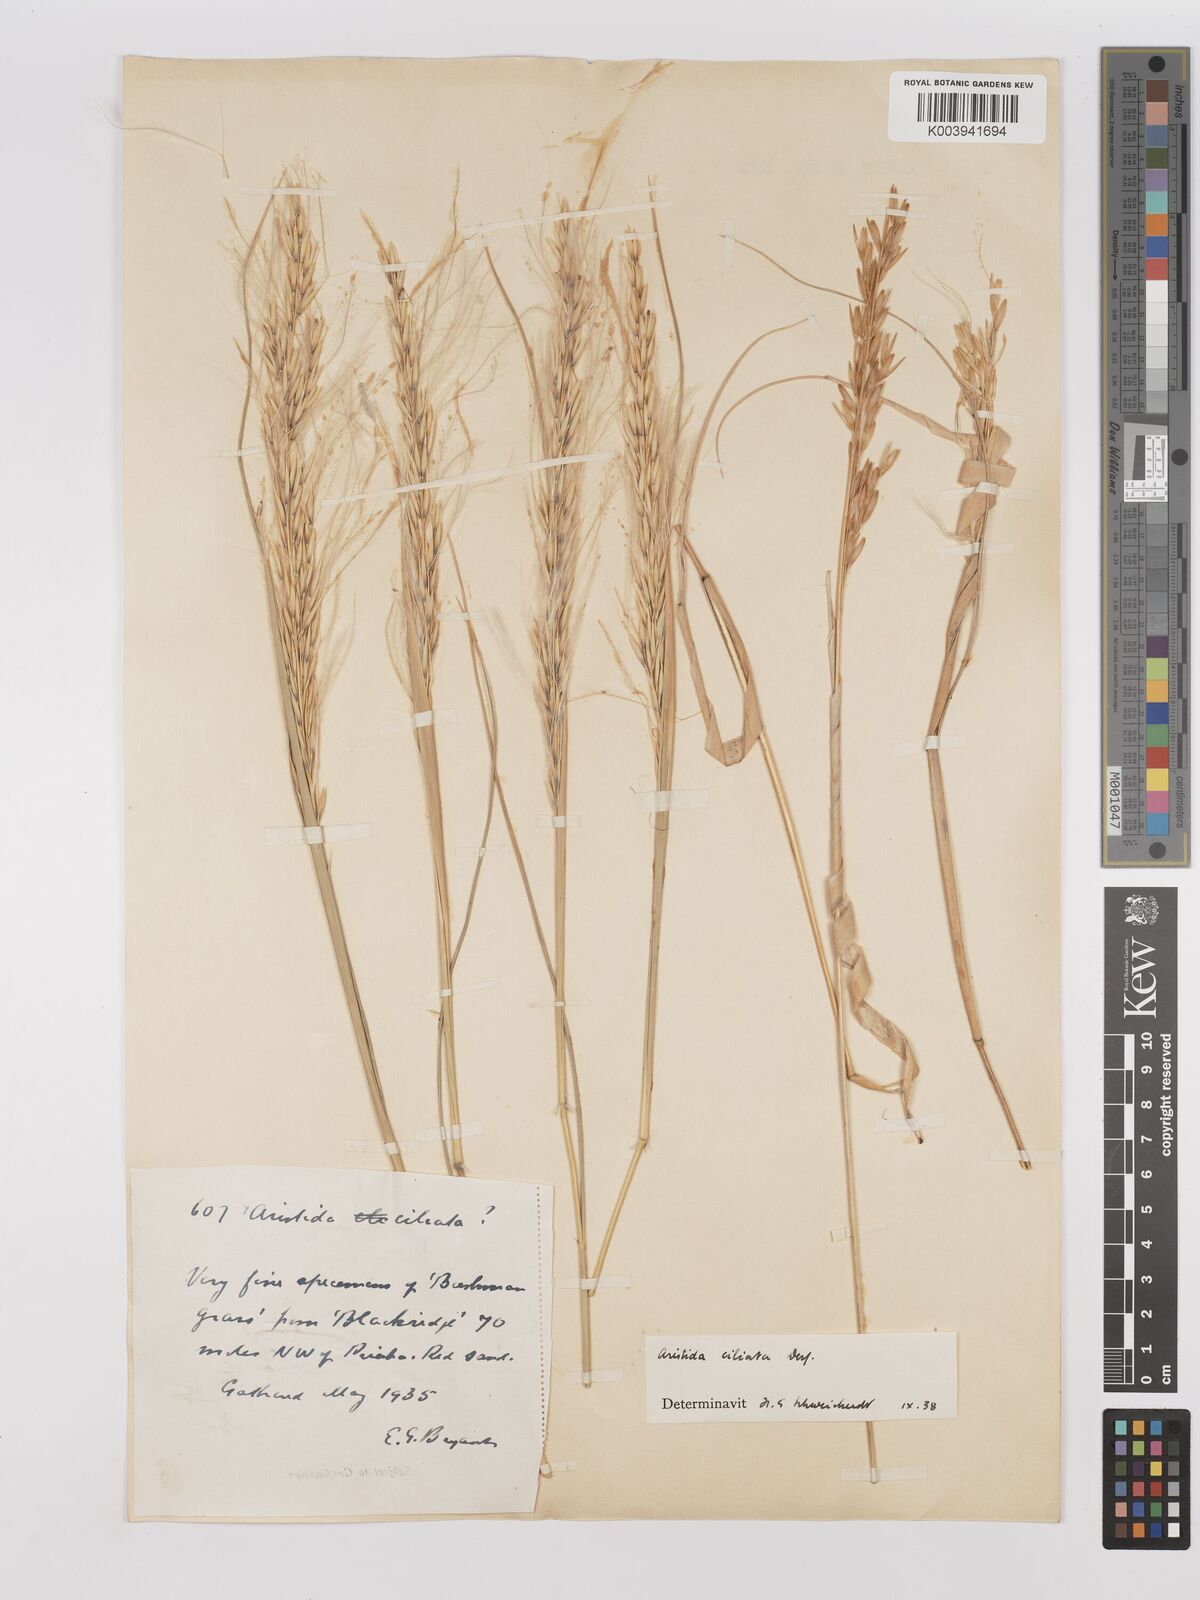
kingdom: Plantae
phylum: Tracheophyta
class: Liliopsida
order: Poales
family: Poaceae
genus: Stipagrostis
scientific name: Stipagrostis ciliata
